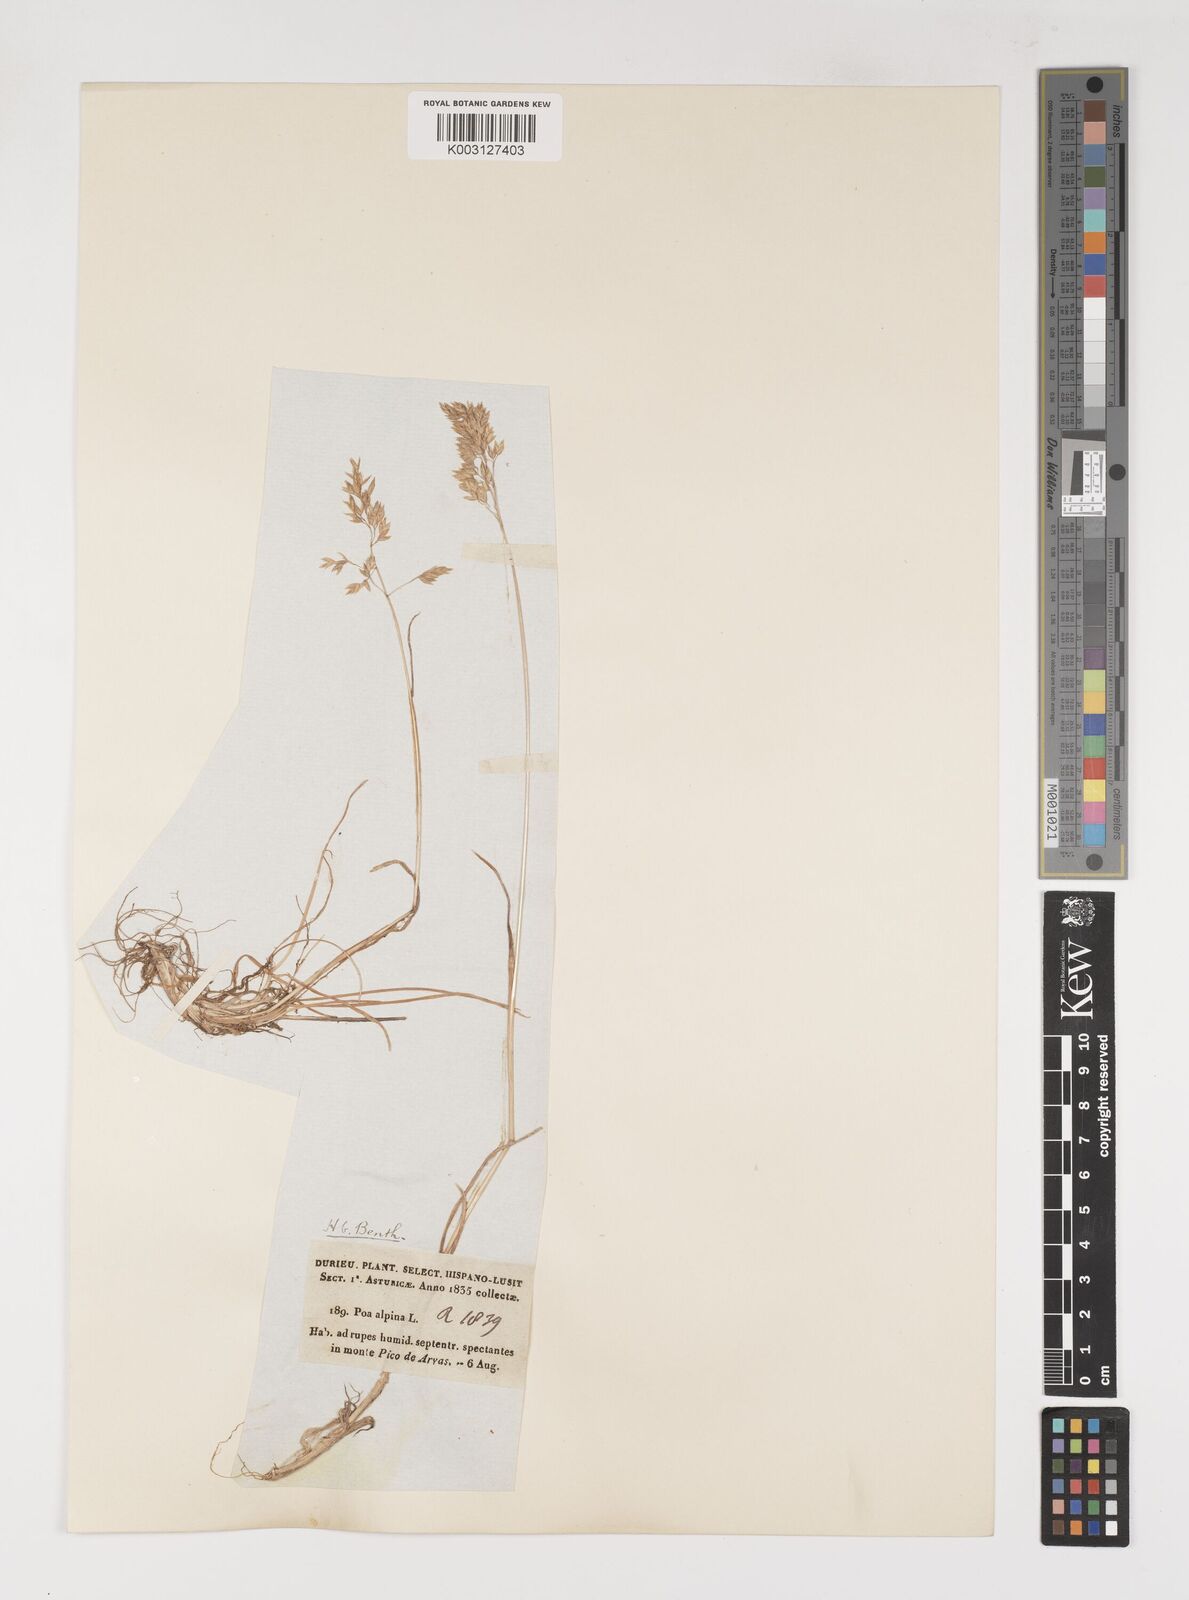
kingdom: Plantae
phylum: Tracheophyta
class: Liliopsida
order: Poales
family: Poaceae
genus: Poa
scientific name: Poa alpina
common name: Alpine bluegrass
